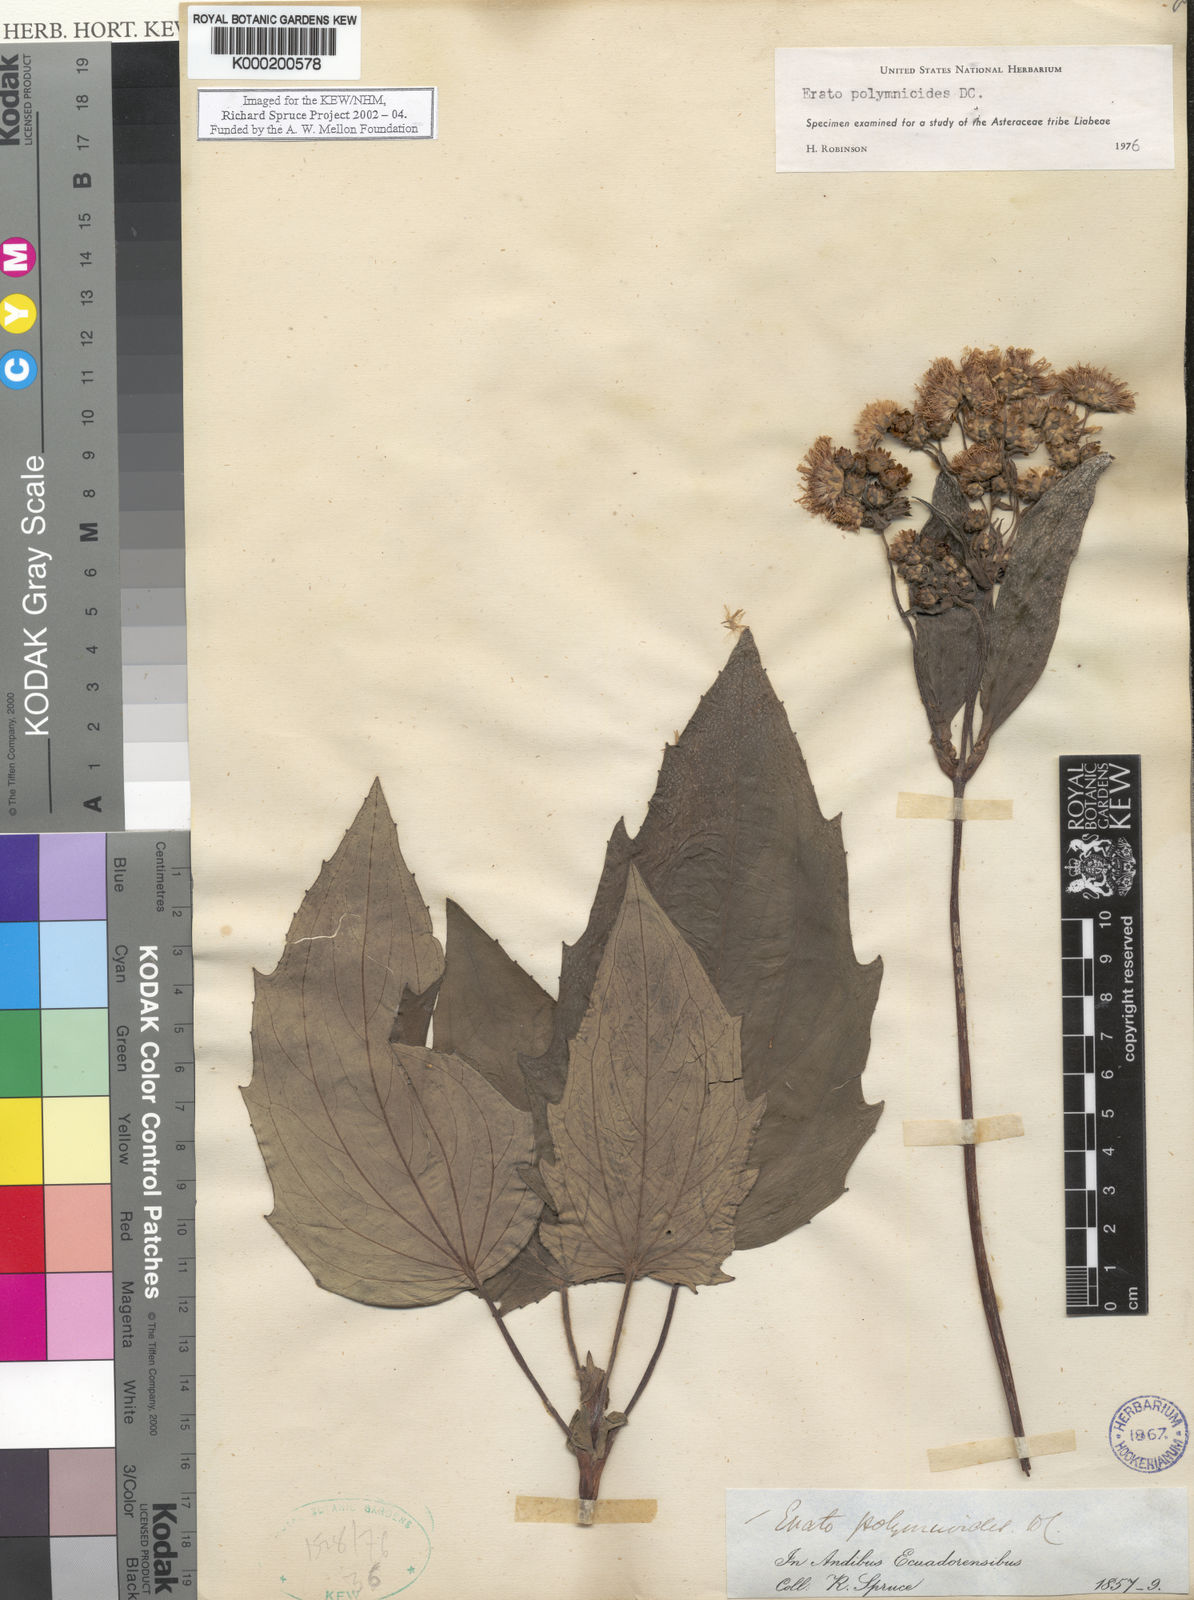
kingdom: Plantae
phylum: Tracheophyta
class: Magnoliopsida
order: Asterales
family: Asteraceae
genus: Erato
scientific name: Erato
